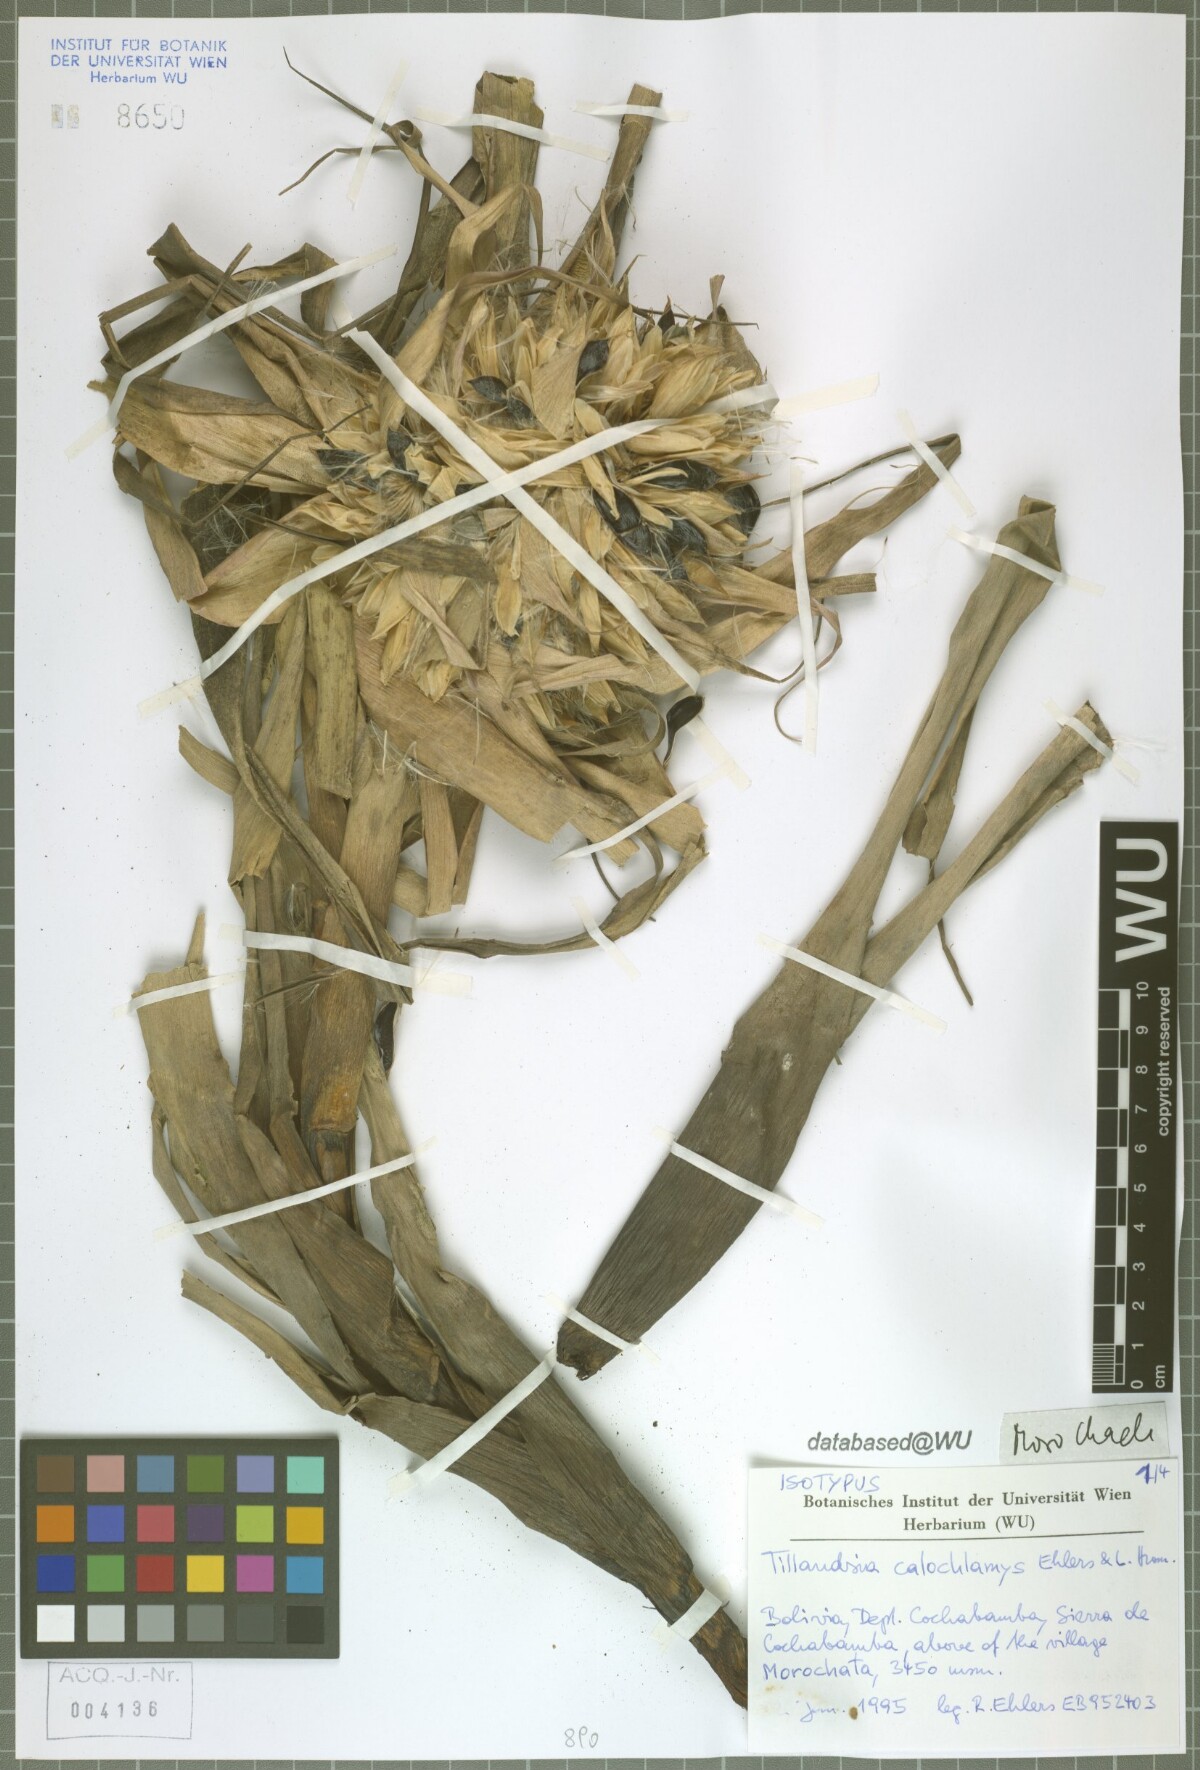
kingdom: Plantae
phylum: Tracheophyta
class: Liliopsida
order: Poales
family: Bromeliaceae
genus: Tillandsia
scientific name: Tillandsia calochlamys
